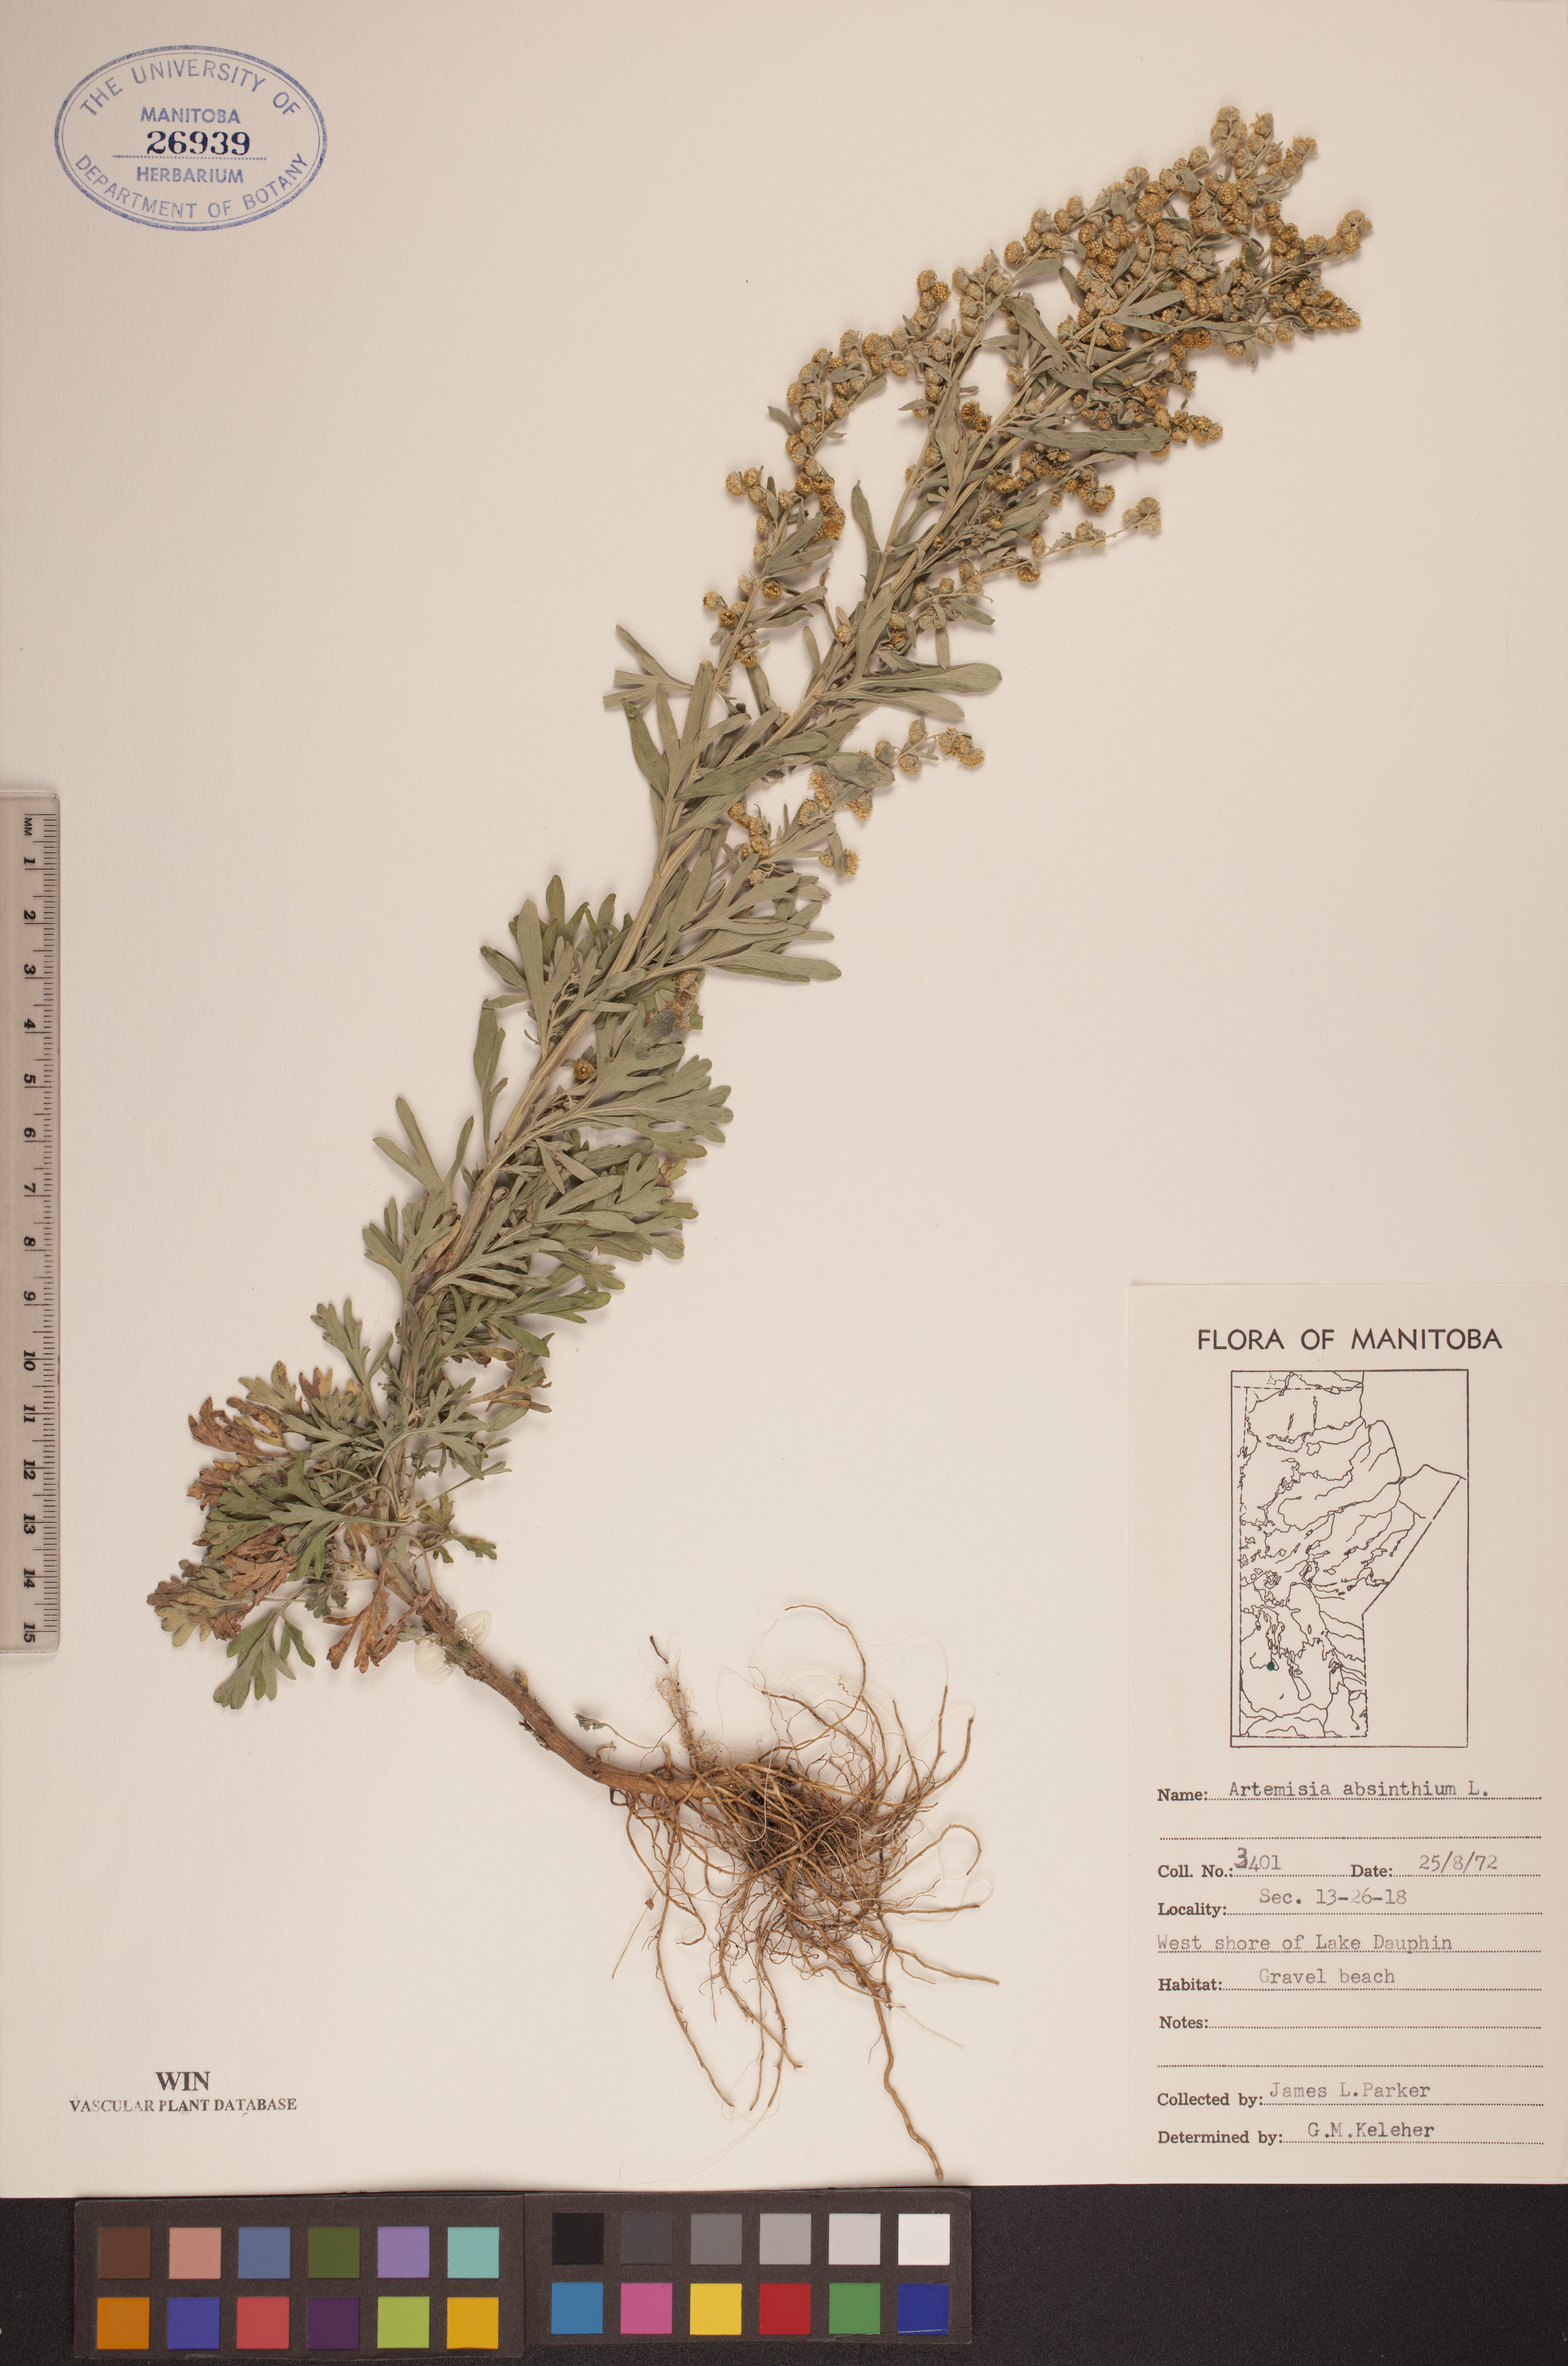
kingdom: Plantae
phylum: Tracheophyta
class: Magnoliopsida
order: Asterales
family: Asteraceae
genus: Artemisia
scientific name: Artemisia absinthium
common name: Wormwood
